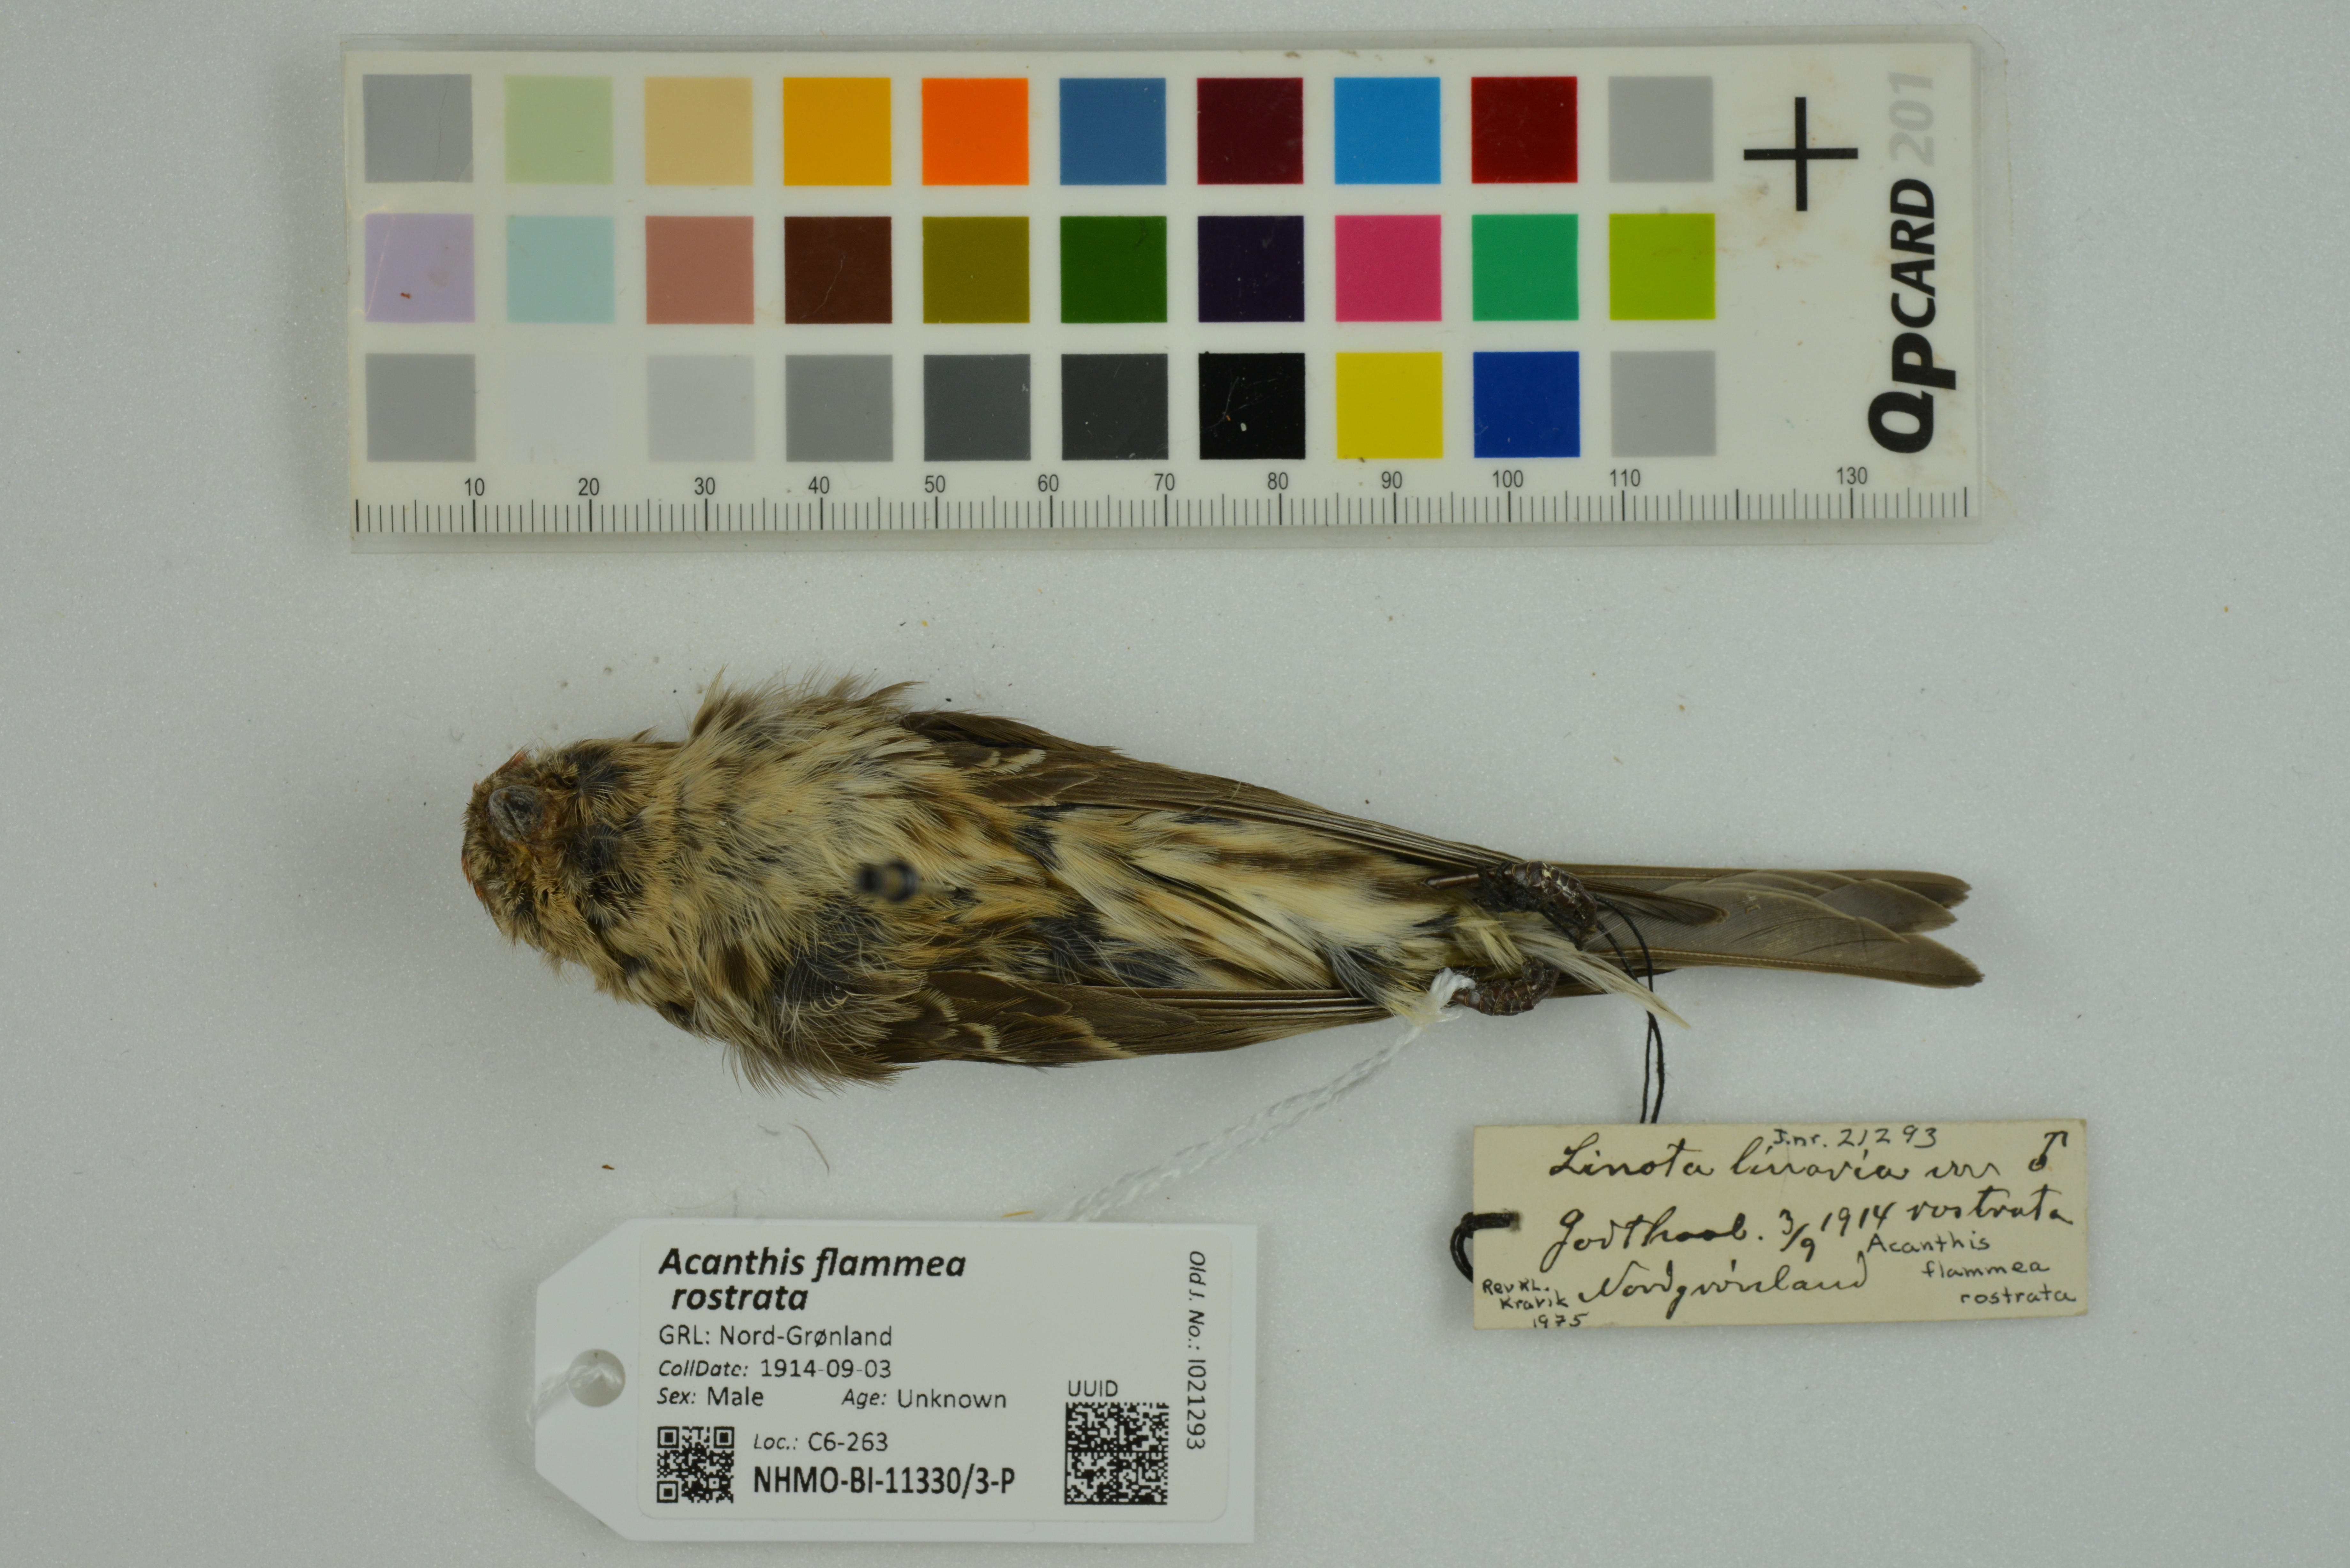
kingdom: Animalia
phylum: Chordata
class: Aves
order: Passeriformes
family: Fringillidae
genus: Acanthis
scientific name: Acanthis flammea
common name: Common redpoll
